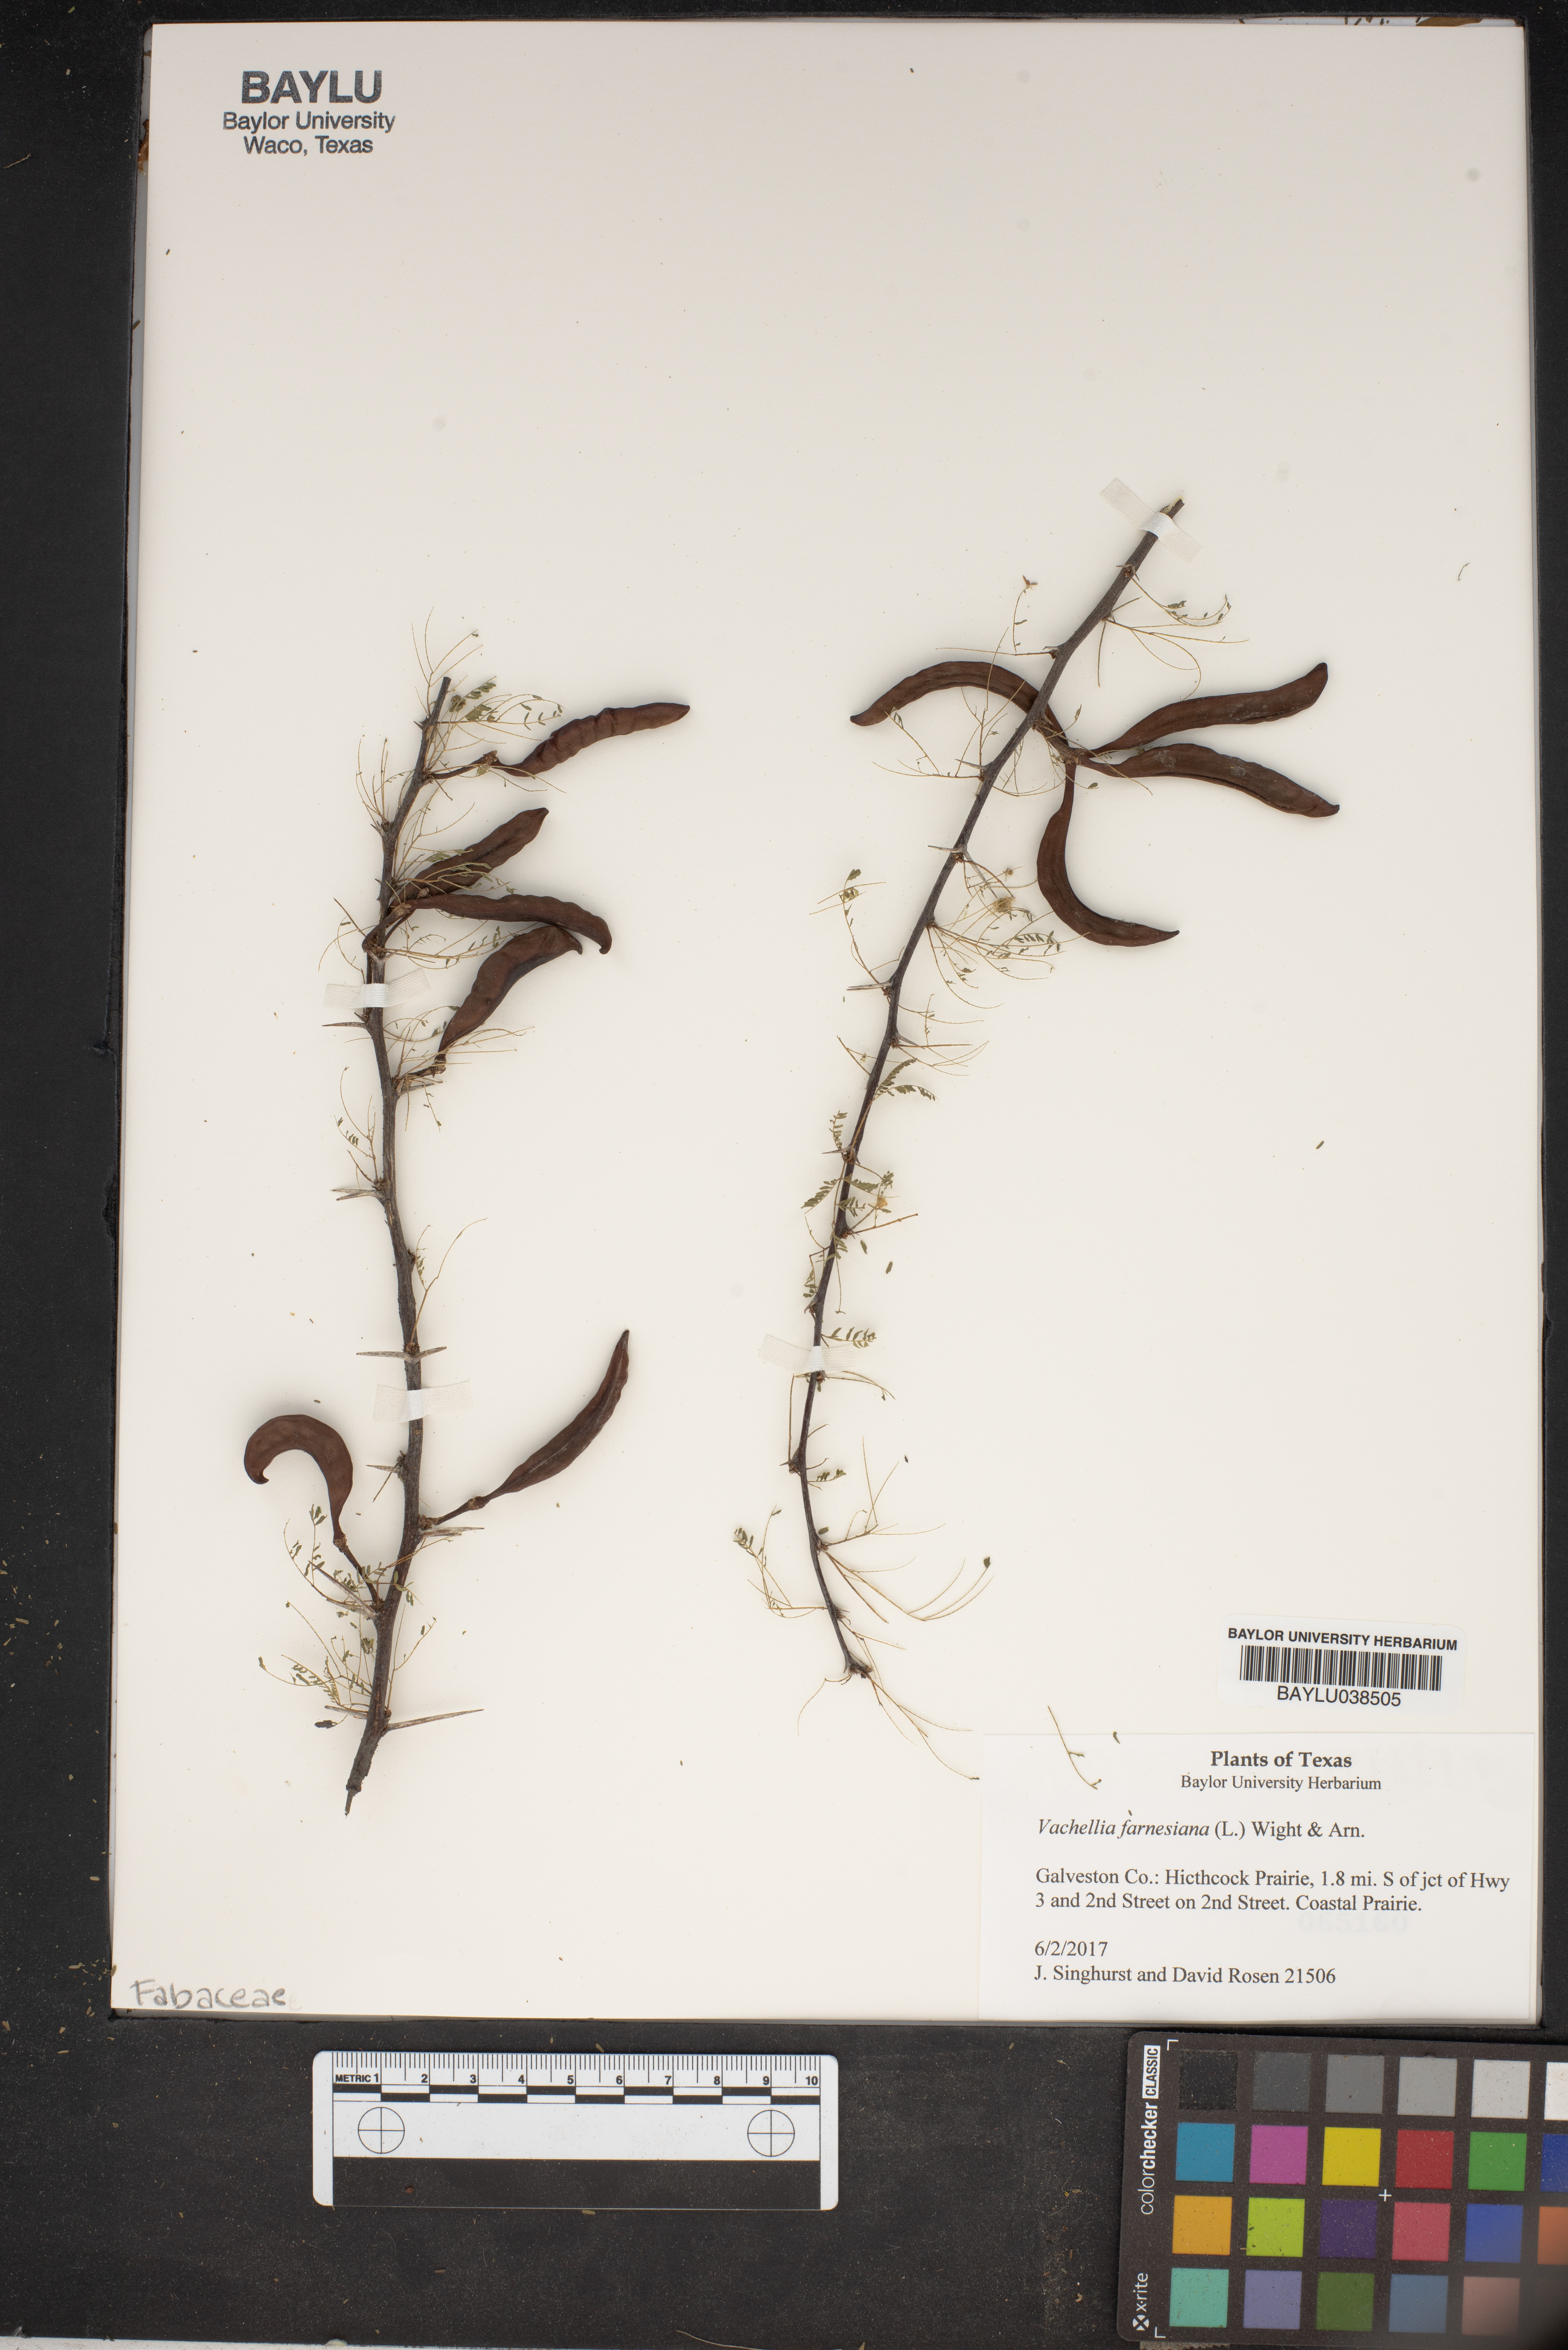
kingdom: Plantae
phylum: Tracheophyta
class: Magnoliopsida
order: Fabales
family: Fabaceae
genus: Vachellia
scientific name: Vachellia farnesiana
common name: Sweet acacia
